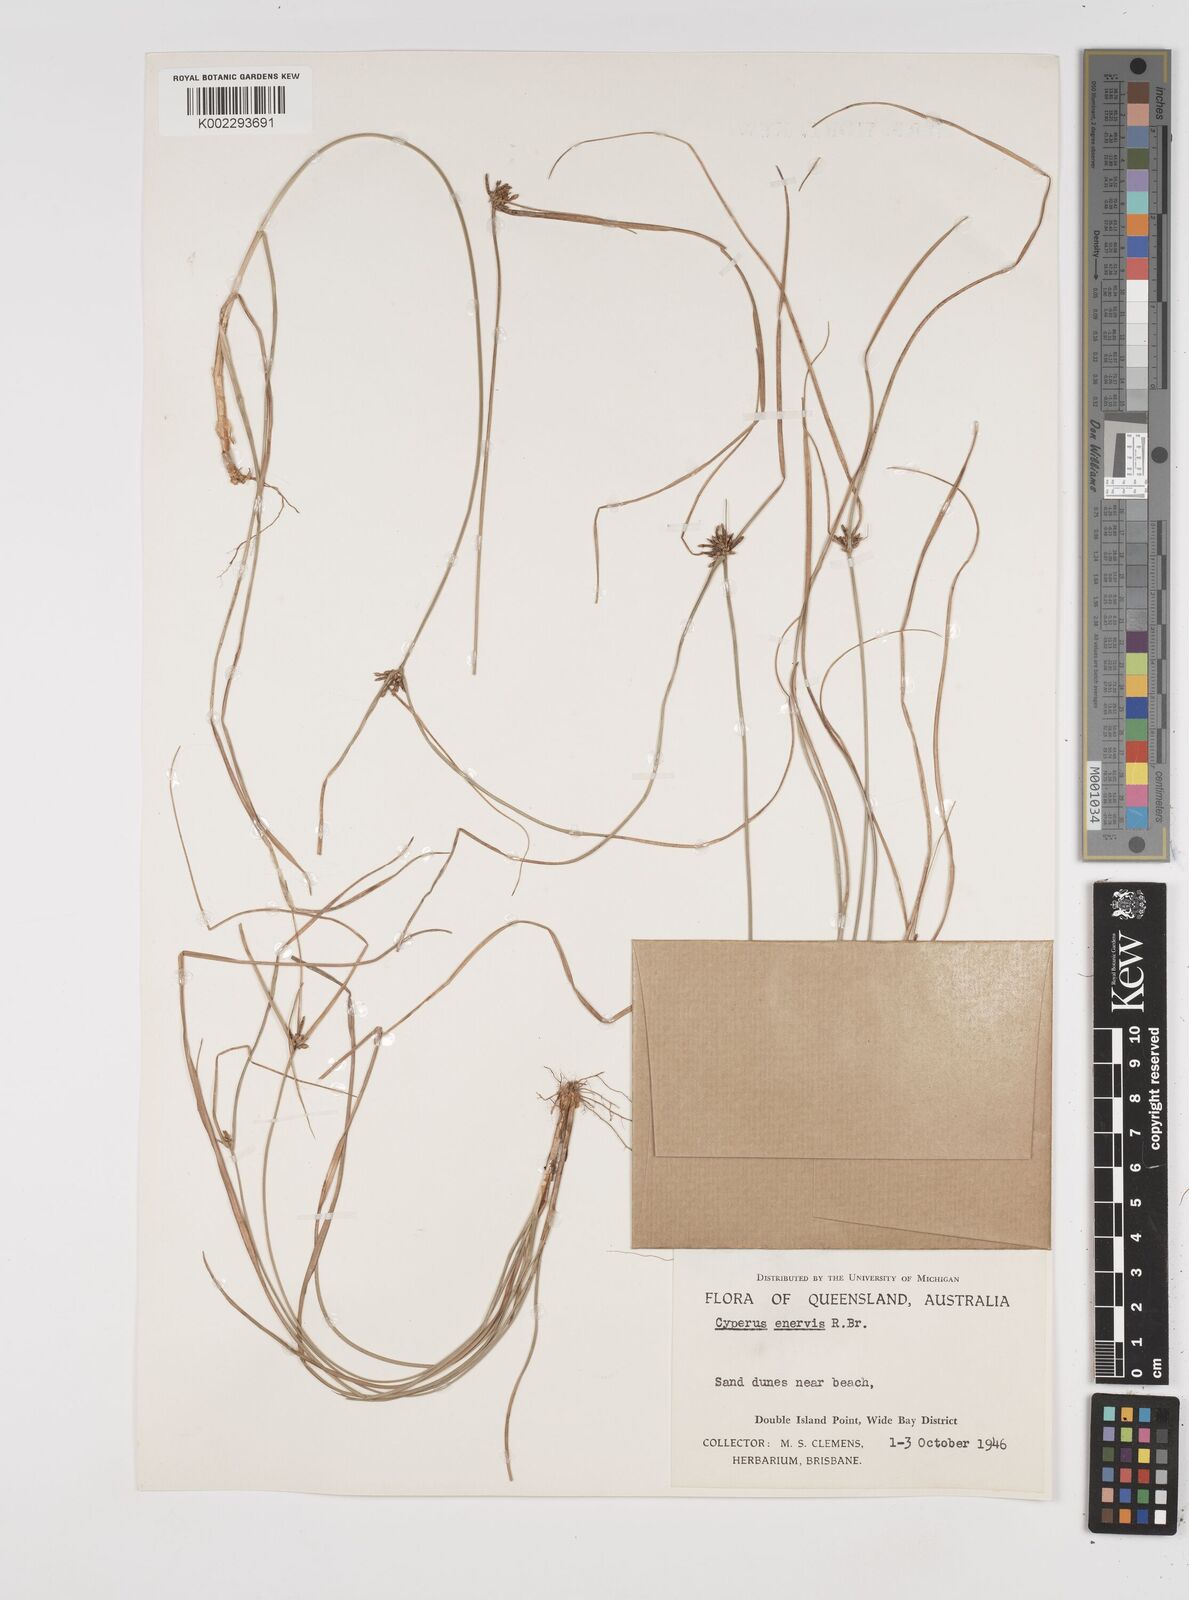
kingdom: Plantae
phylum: Tracheophyta
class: Liliopsida
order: Poales
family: Cyperaceae
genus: Cyperus
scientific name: Cyperus enervis
